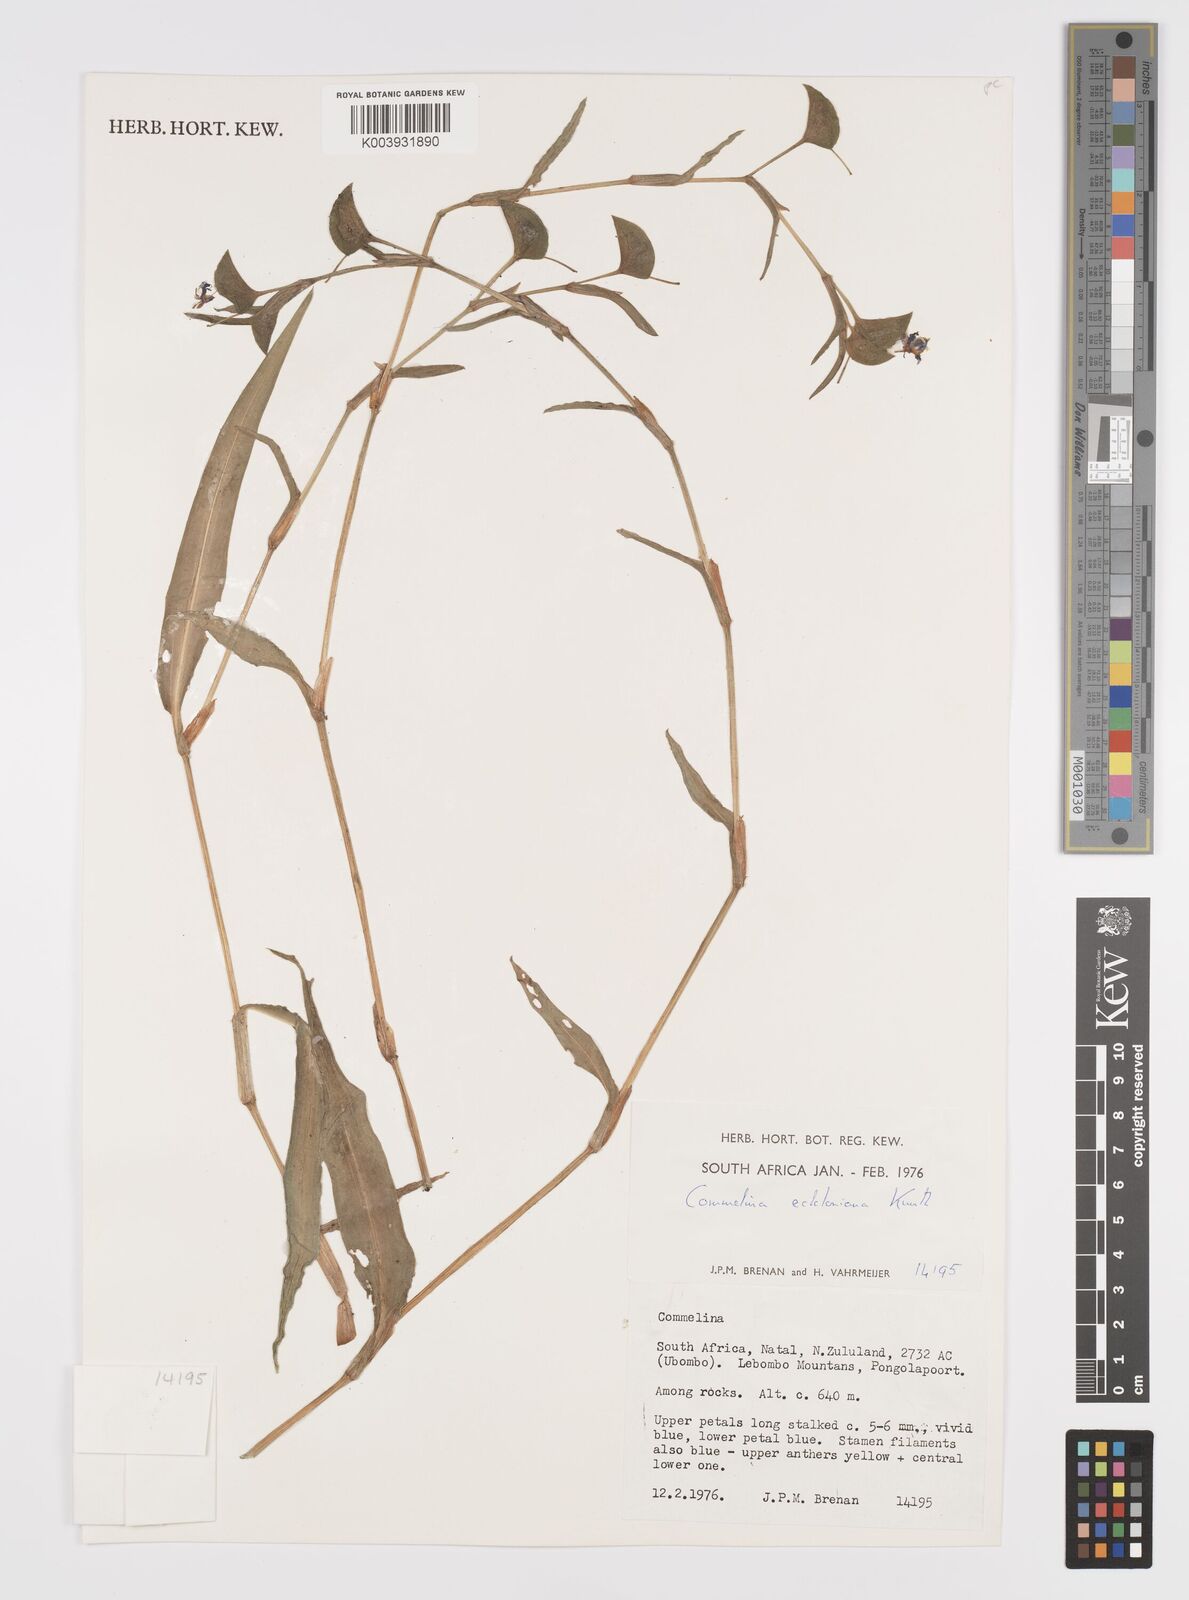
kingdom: Plantae
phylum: Tracheophyta
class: Liliopsida
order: Commelinales
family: Commelinaceae
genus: Commelina
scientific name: Commelina eckloniana
